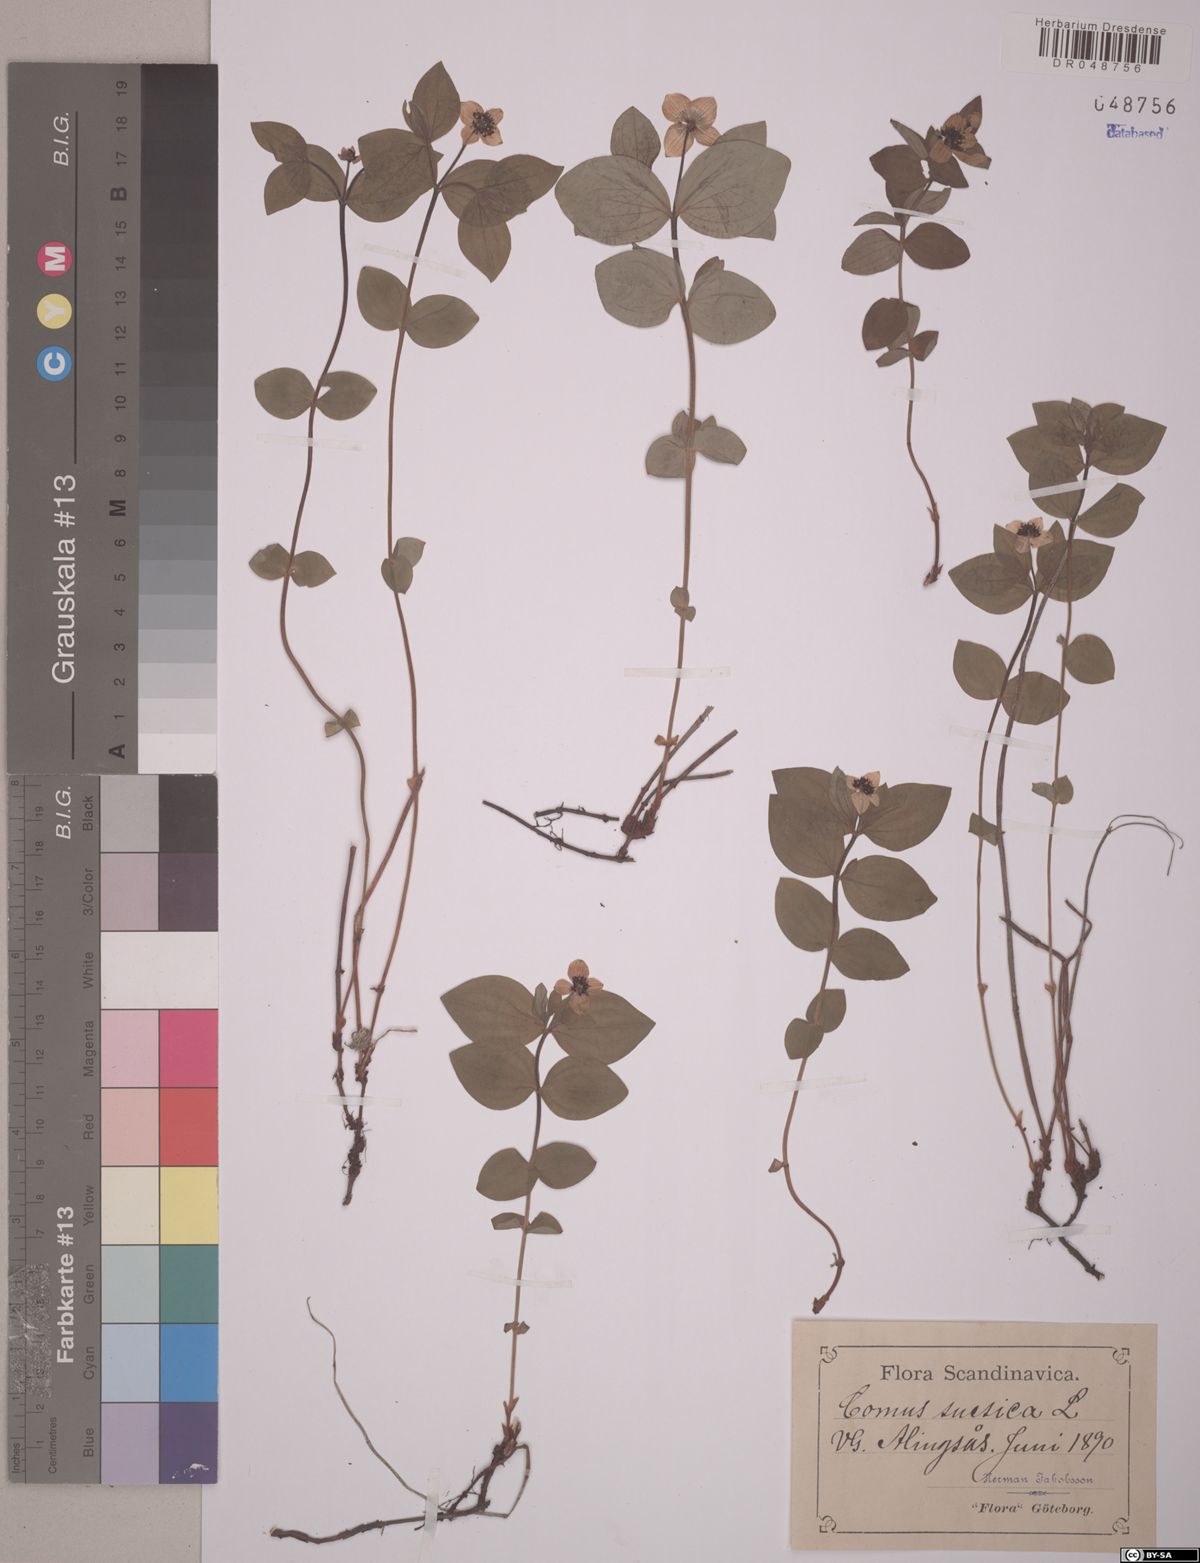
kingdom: Plantae
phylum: Tracheophyta
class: Magnoliopsida
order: Cornales
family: Cornaceae
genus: Cornus
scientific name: Cornus suecica
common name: Dwarf cornel
